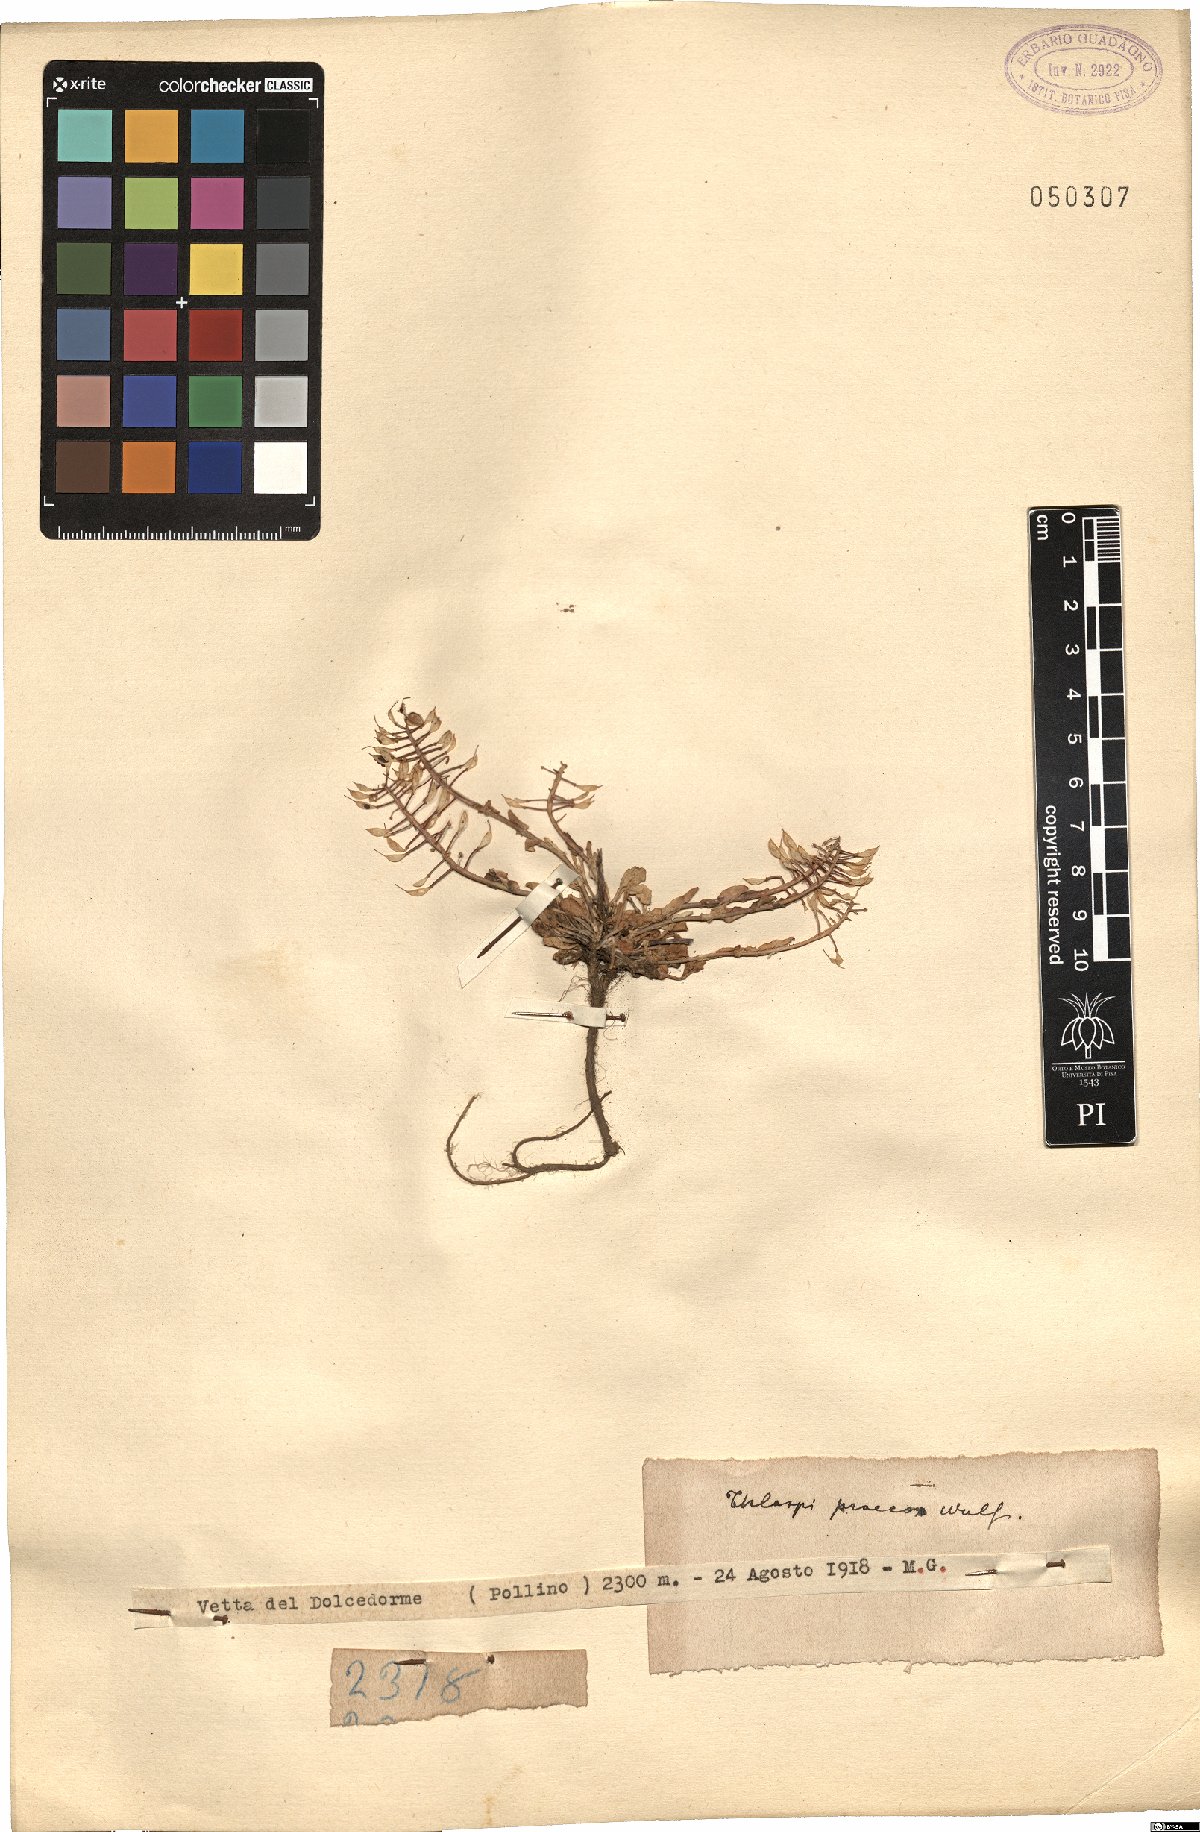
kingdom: Plantae
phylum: Tracheophyta
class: Magnoliopsida
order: Brassicales
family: Brassicaceae
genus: Noccaea
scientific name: Noccaea praecox
